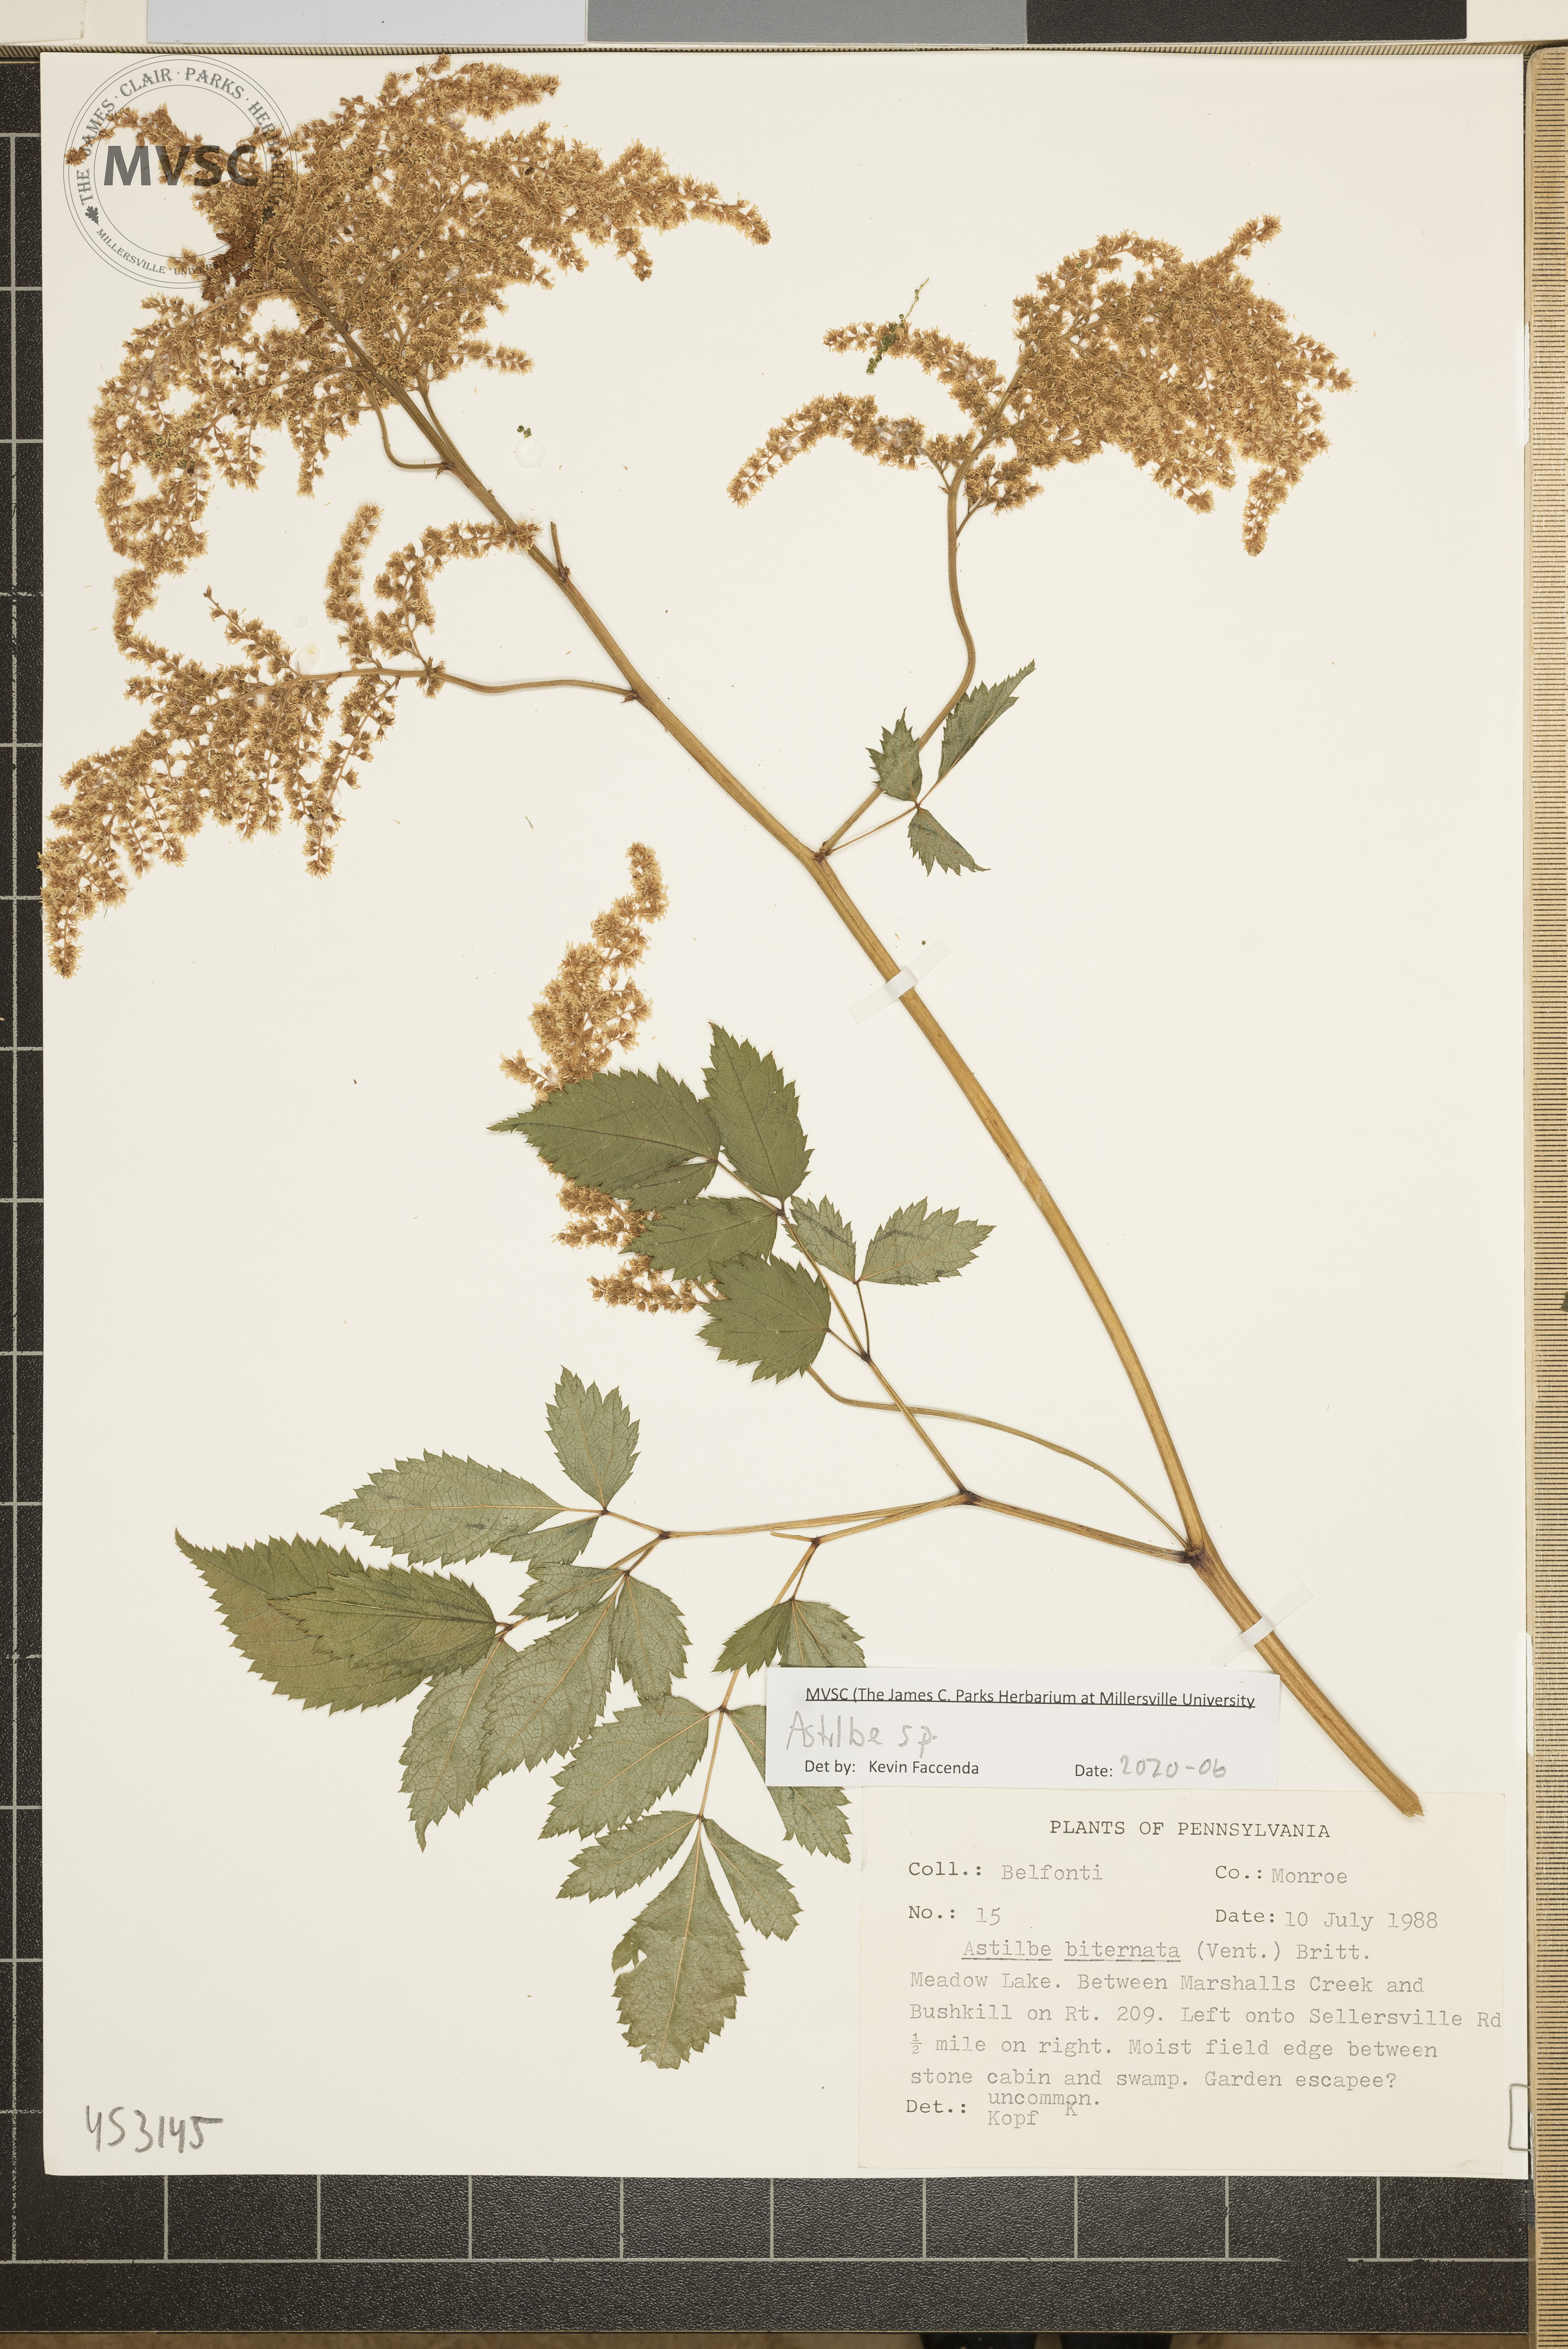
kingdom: Plantae
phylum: Tracheophyta
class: Magnoliopsida
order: Saxifragales
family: Saxifragaceae
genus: Astilbe
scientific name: Astilbe
